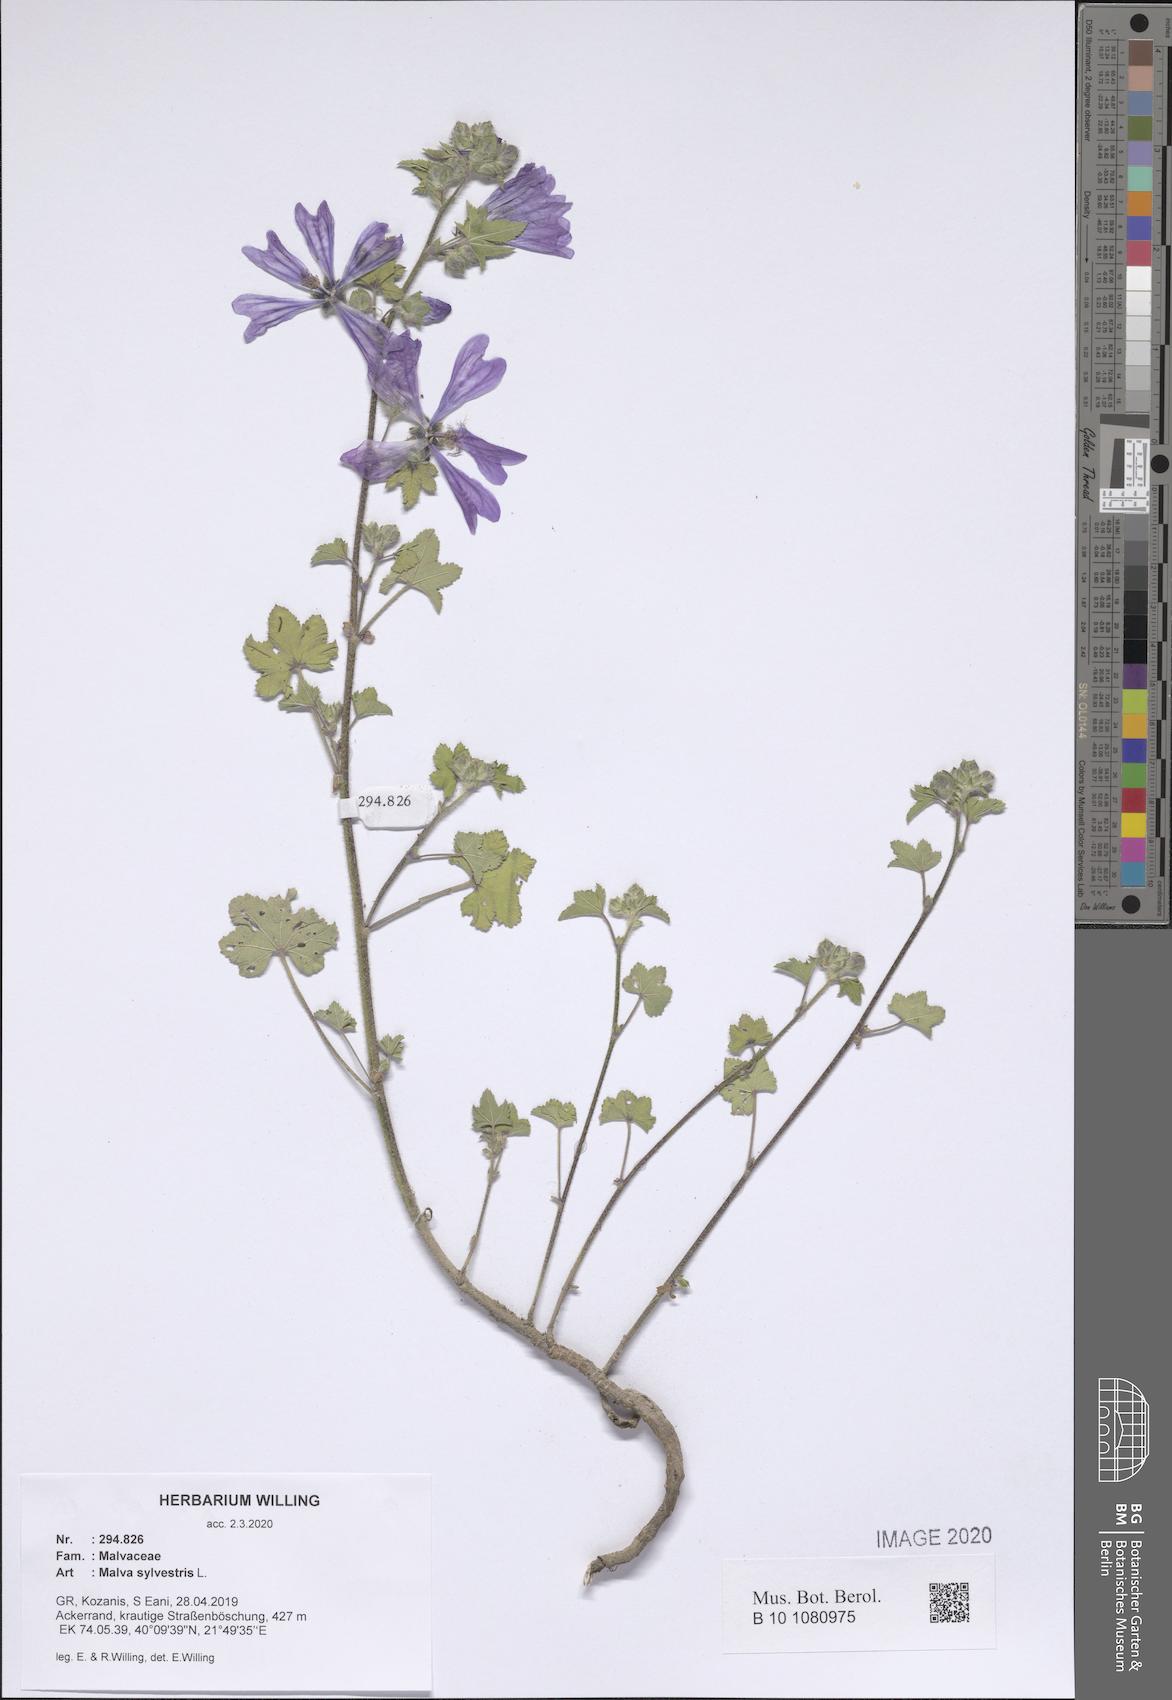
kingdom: Plantae
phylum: Tracheophyta
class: Magnoliopsida
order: Malvales
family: Malvaceae
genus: Malva
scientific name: Malva sylvestris
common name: Common mallow
